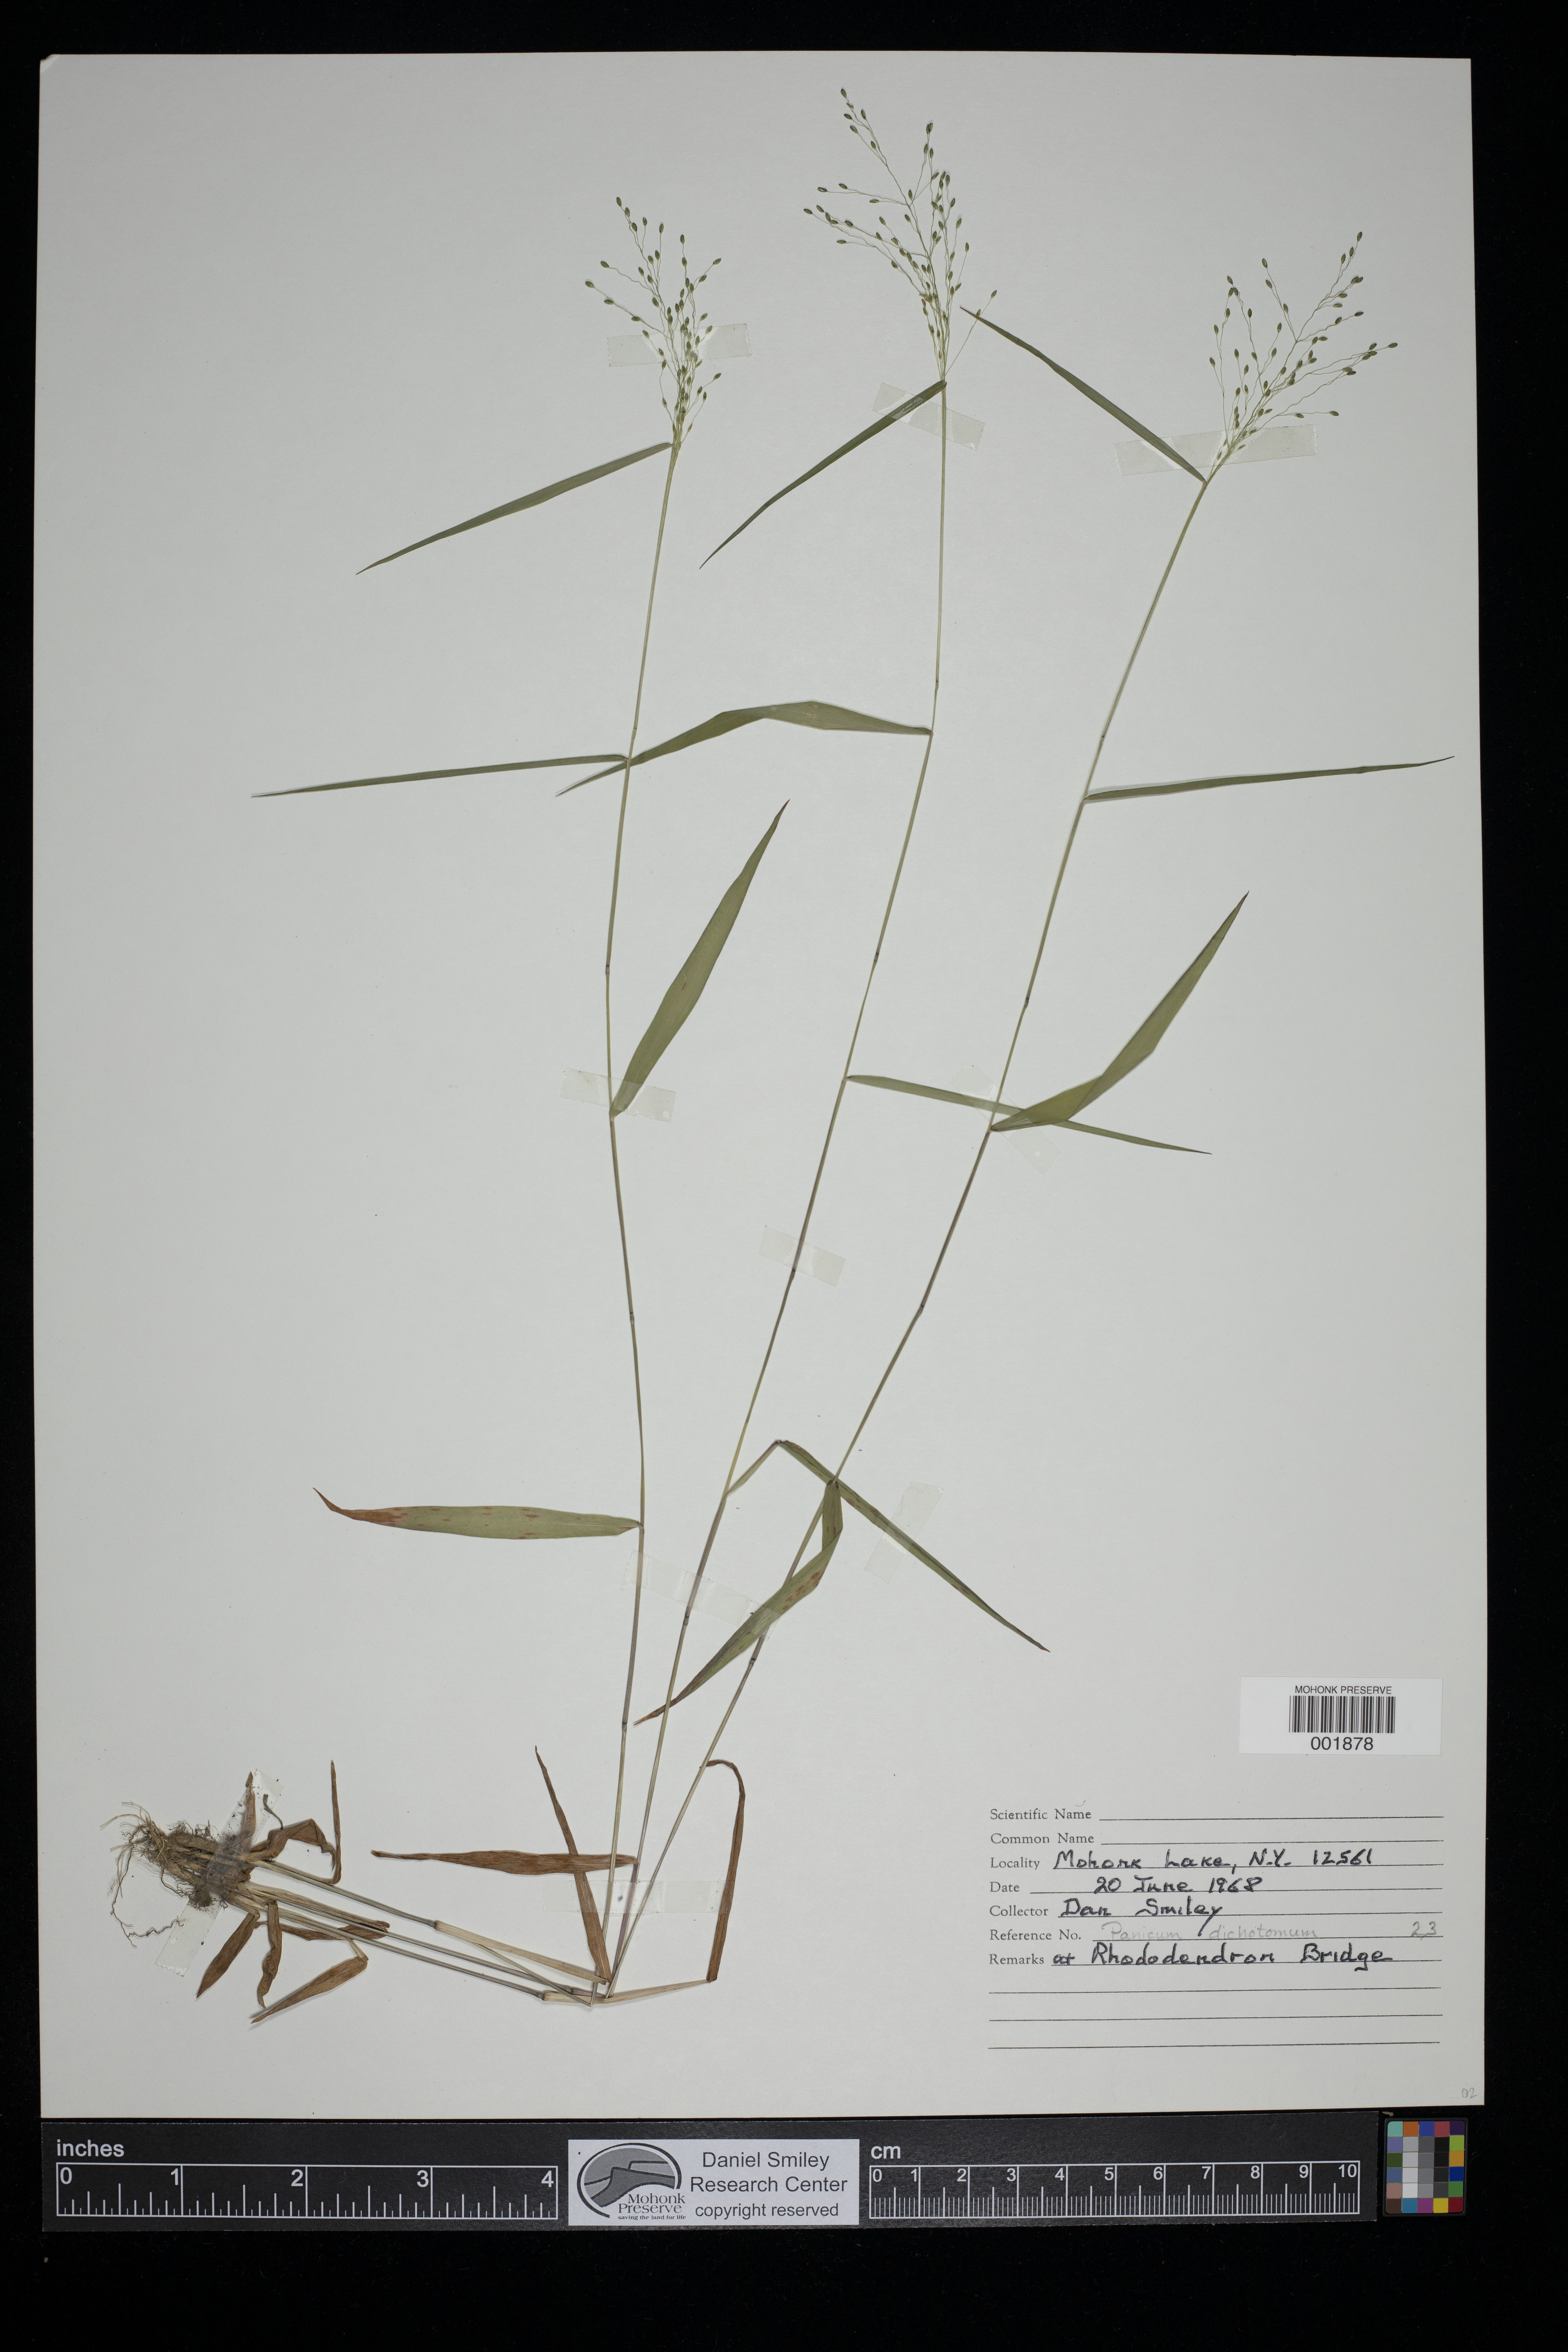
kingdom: Plantae
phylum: Tracheophyta
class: Liliopsida
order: Poales
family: Poaceae
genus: Dichanthelium
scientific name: Dichanthelium dichotomum
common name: Cypress panicgrass
